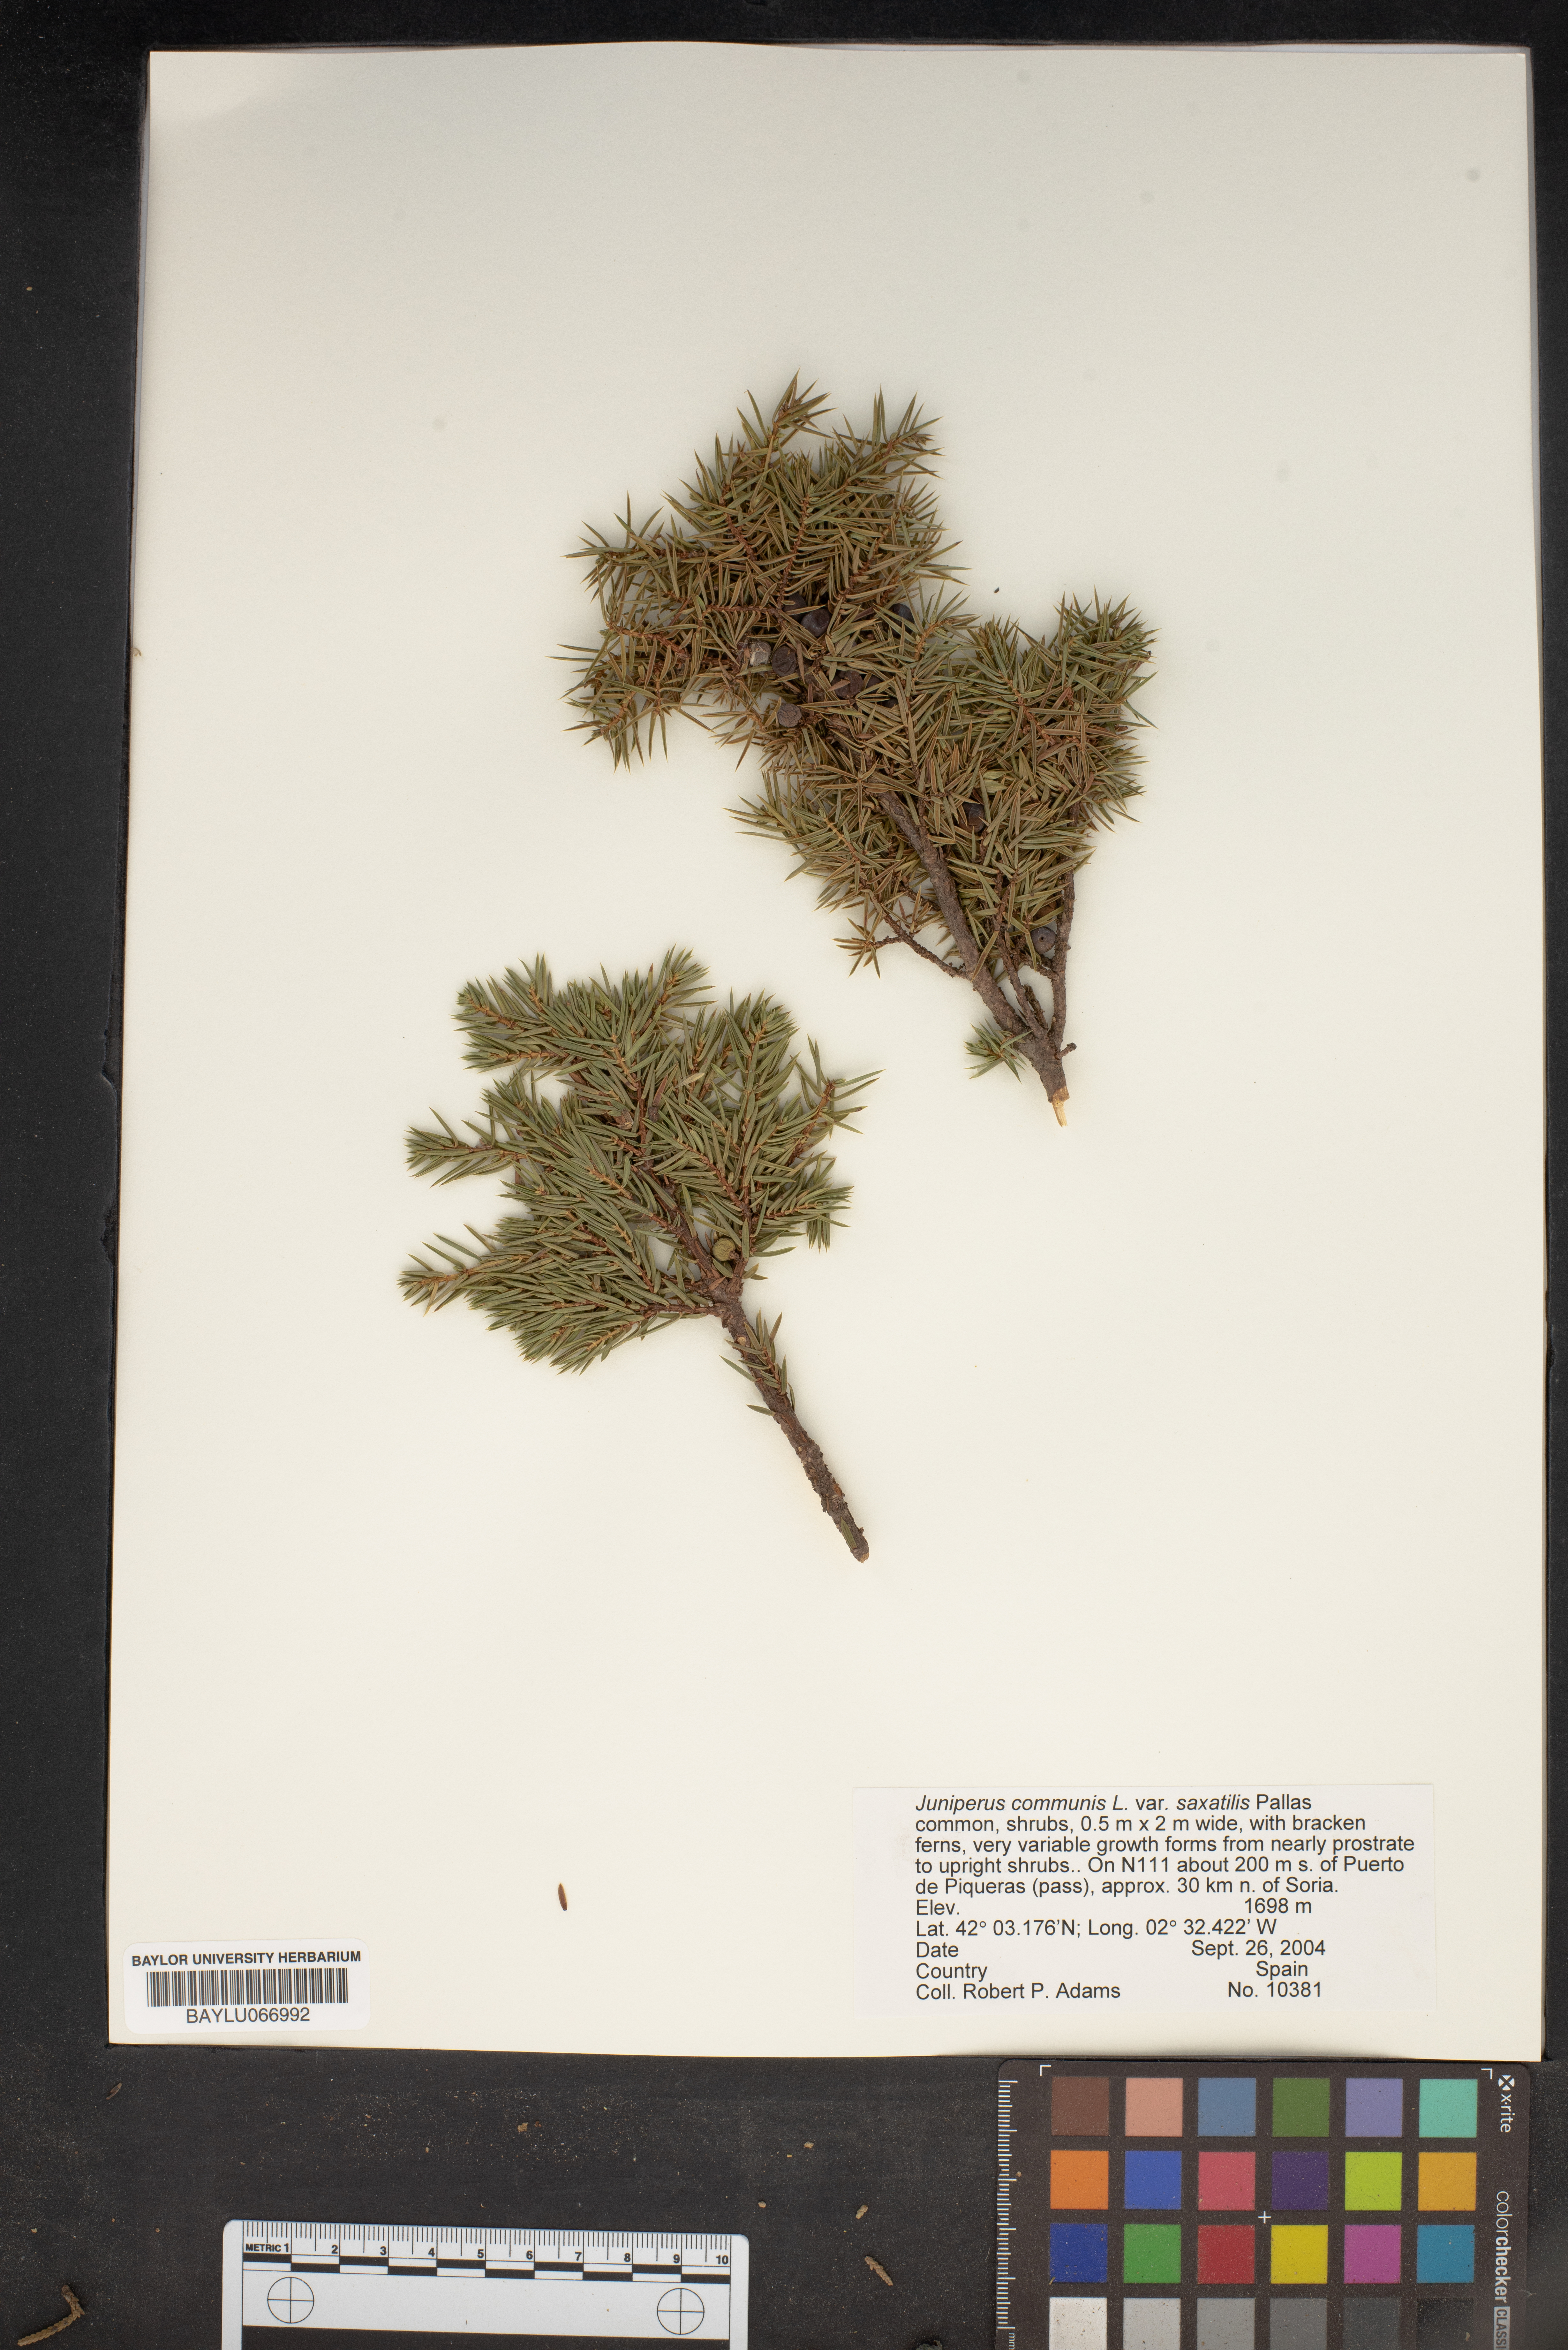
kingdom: Plantae
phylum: Tracheophyta
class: Pinopsida
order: Pinales
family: Cupressaceae
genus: Juniperus
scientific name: Juniperus communis
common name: Common juniper
